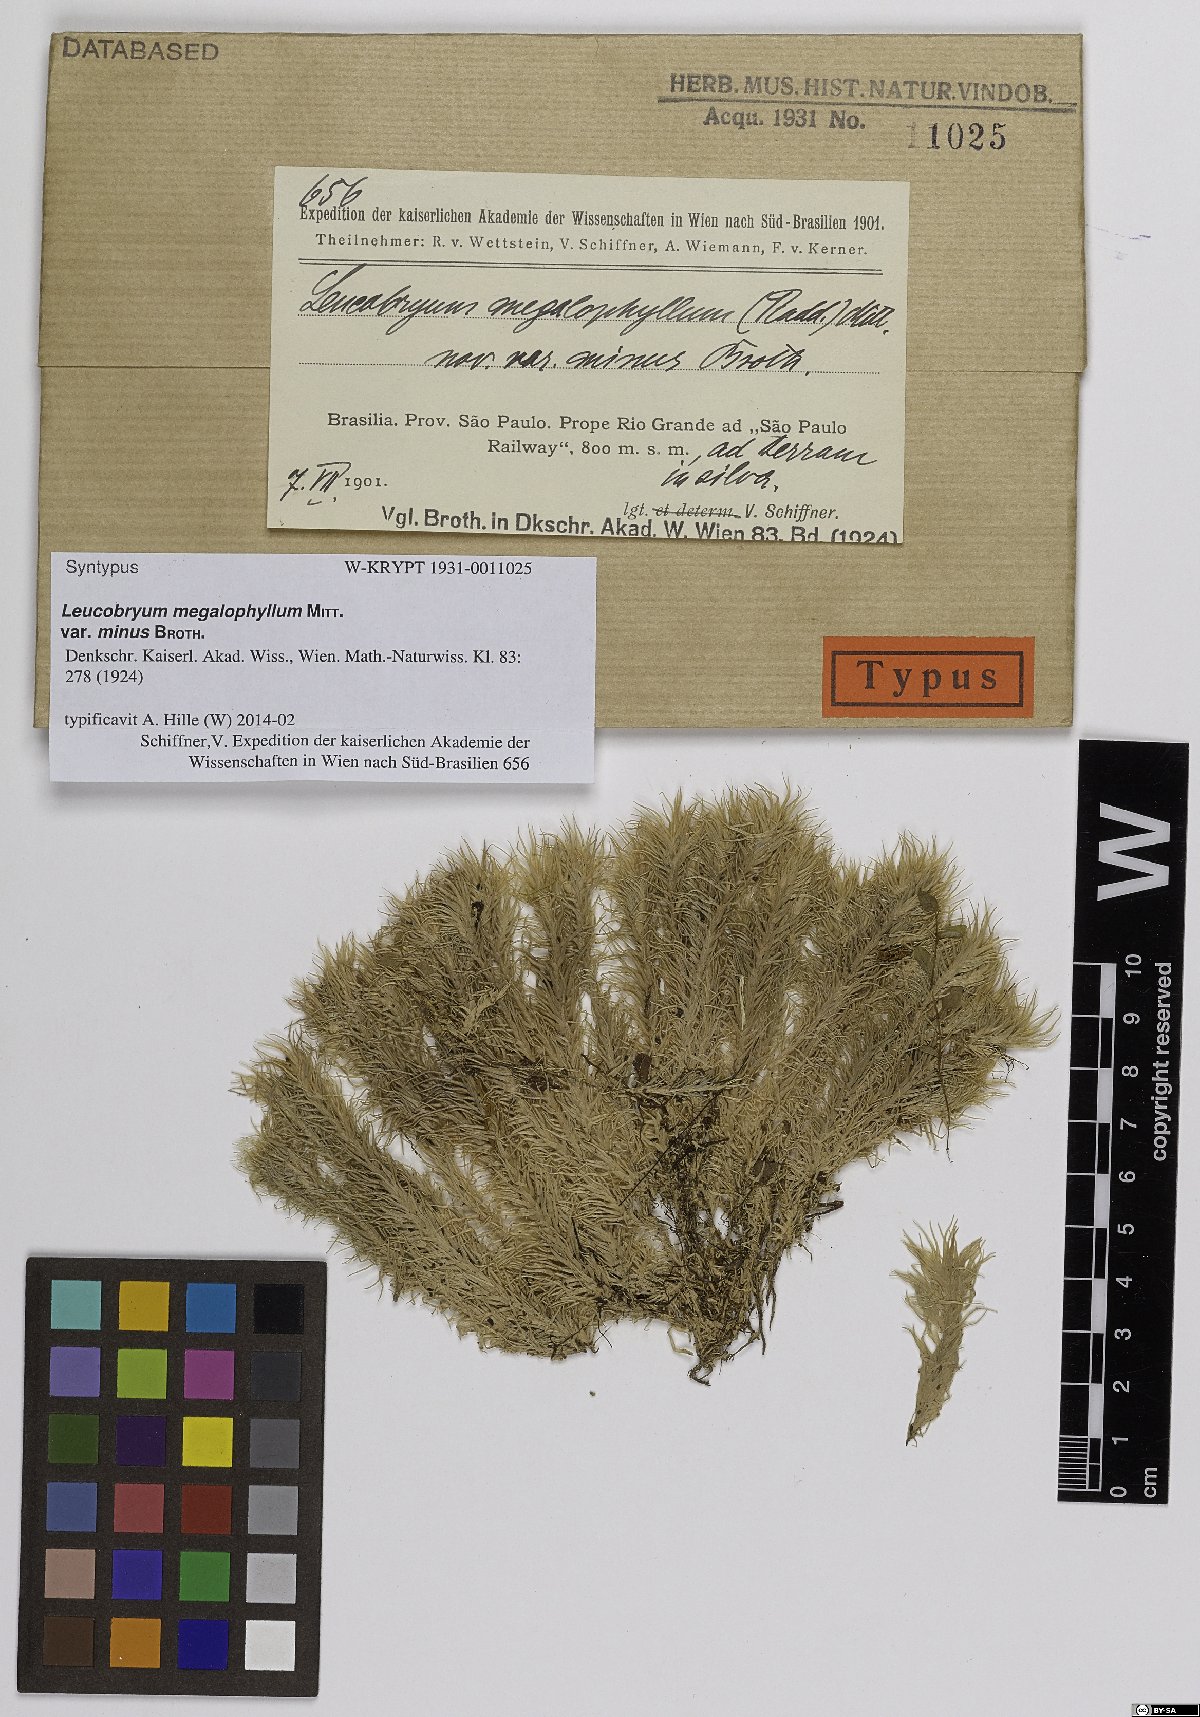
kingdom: Plantae
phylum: Bryophyta
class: Bryopsida
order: Dicranales
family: Leucobryaceae
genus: Leucobryum
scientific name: Leucobryum albicans
